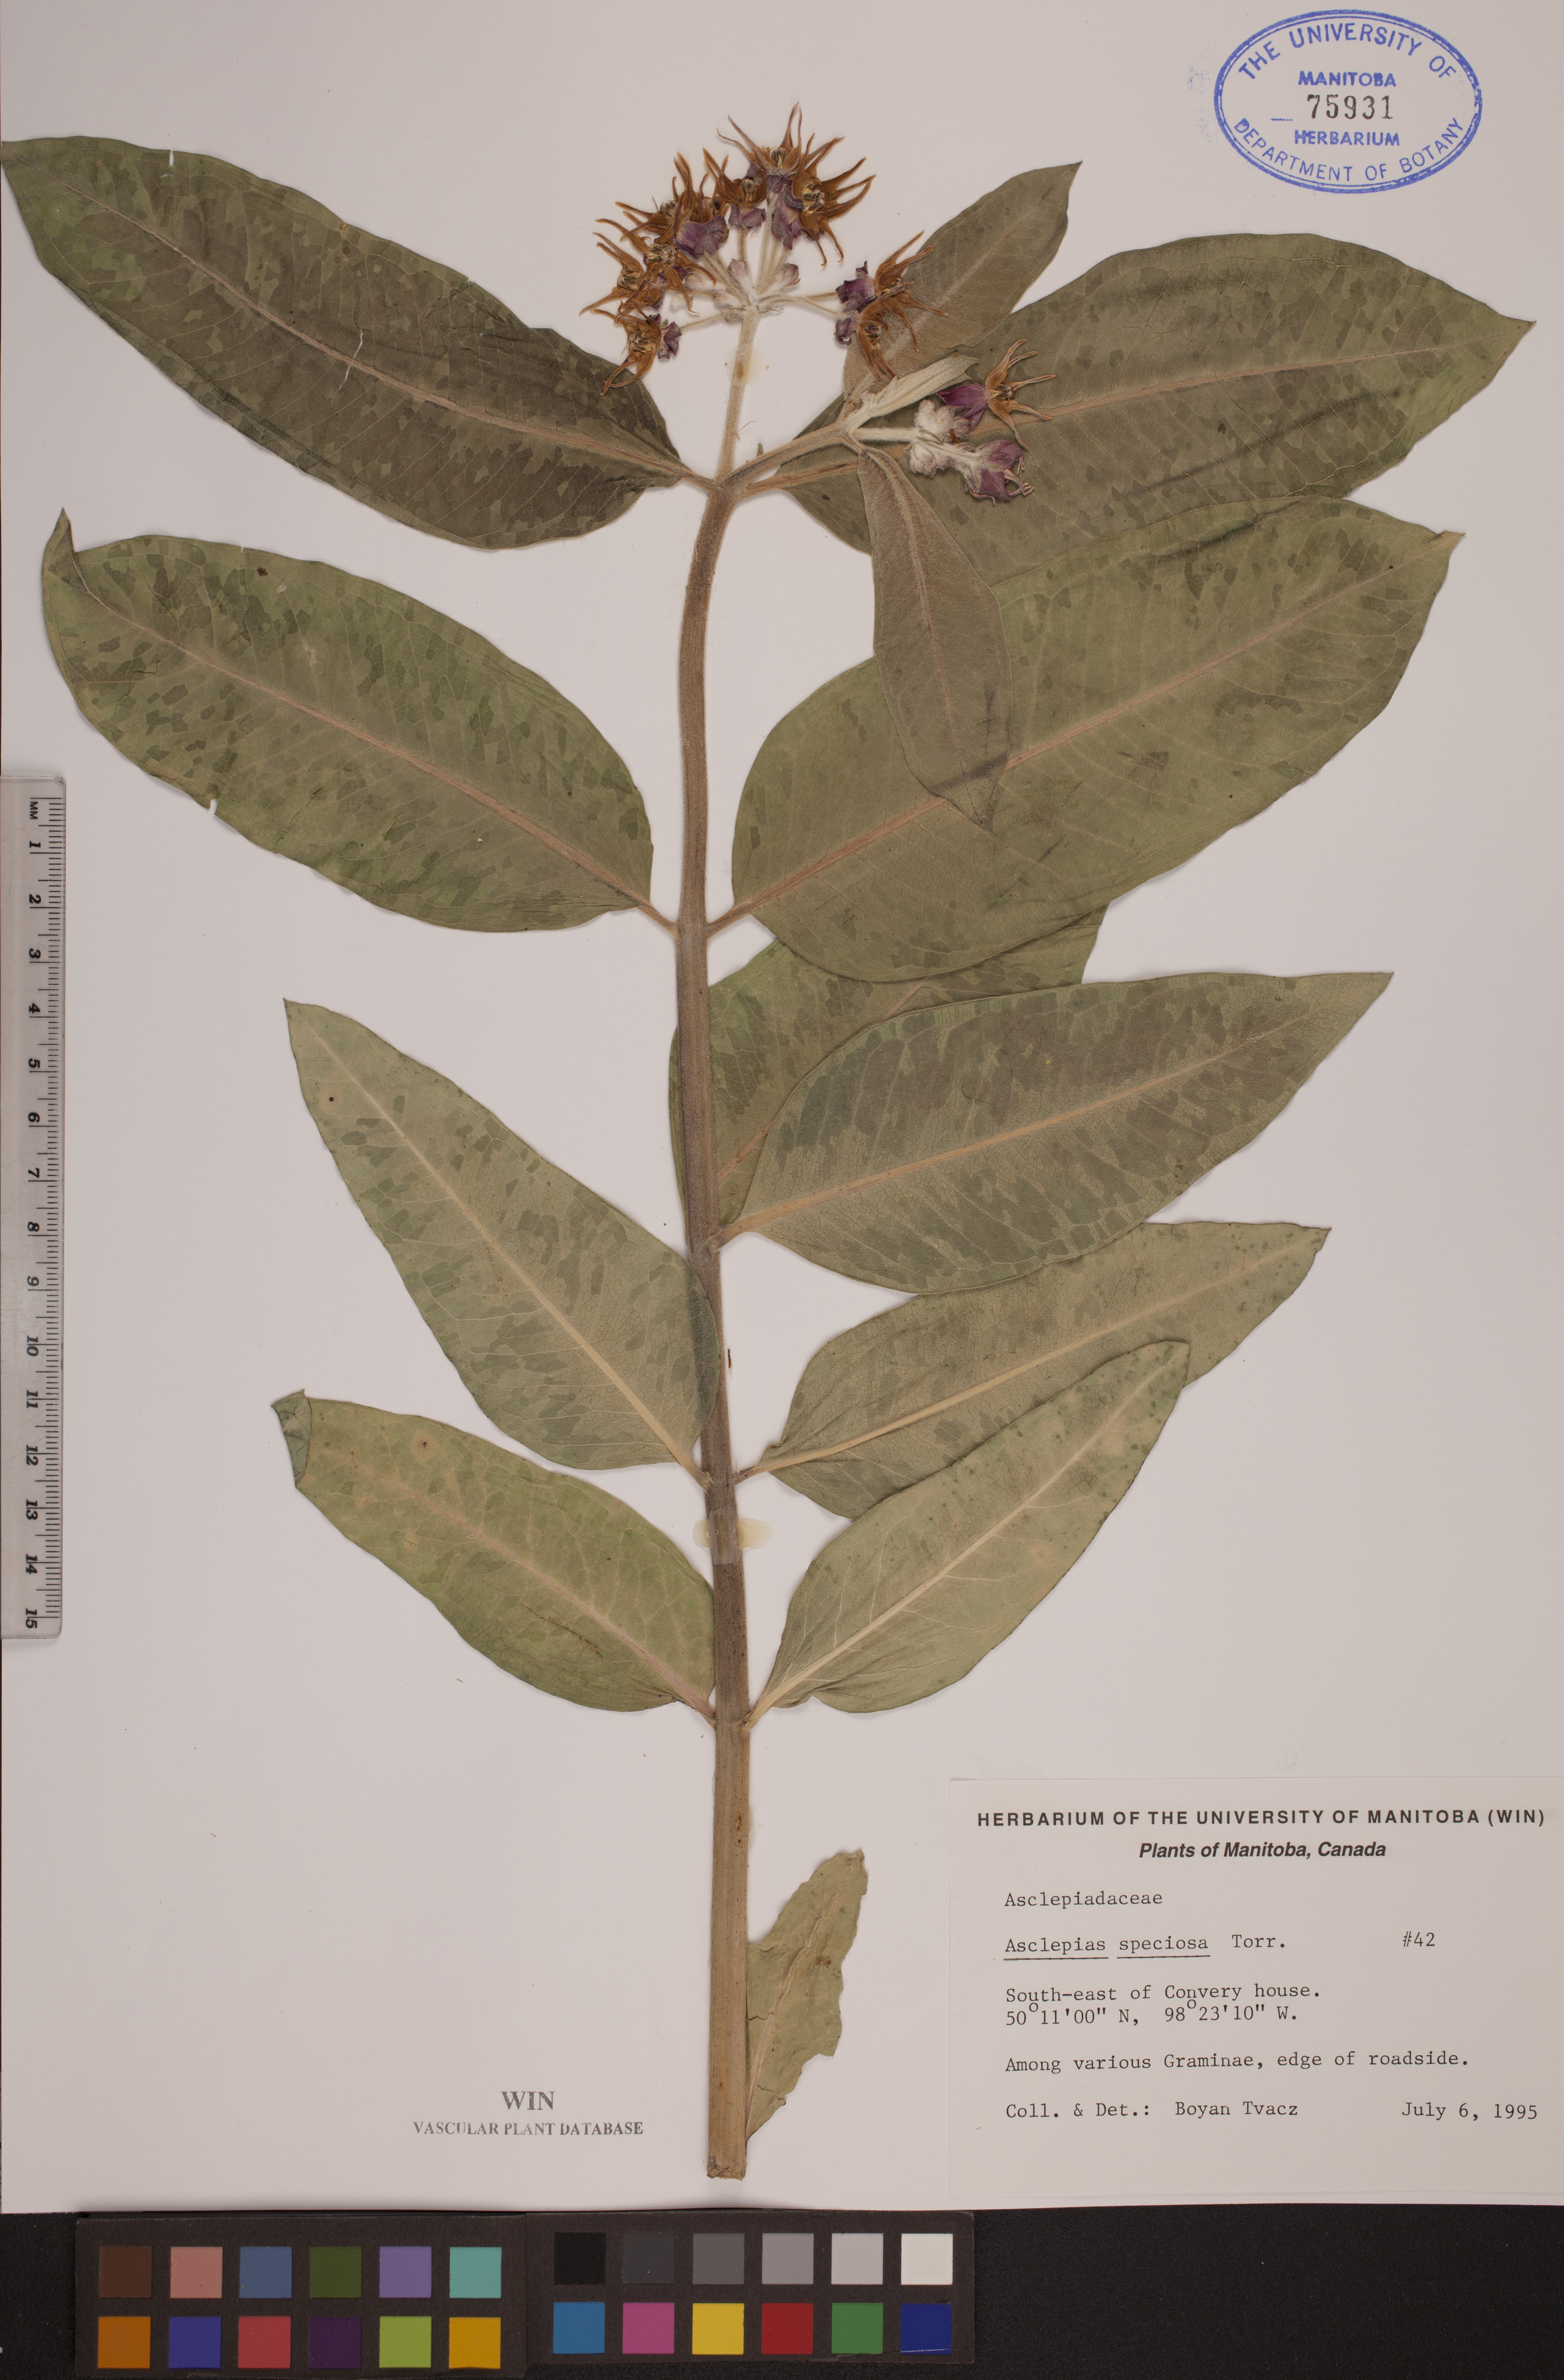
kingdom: Plantae
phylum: Tracheophyta
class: Magnoliopsida
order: Gentianales
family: Apocynaceae
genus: Asclepias
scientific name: Asclepias speciosa
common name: Showy milkweed
